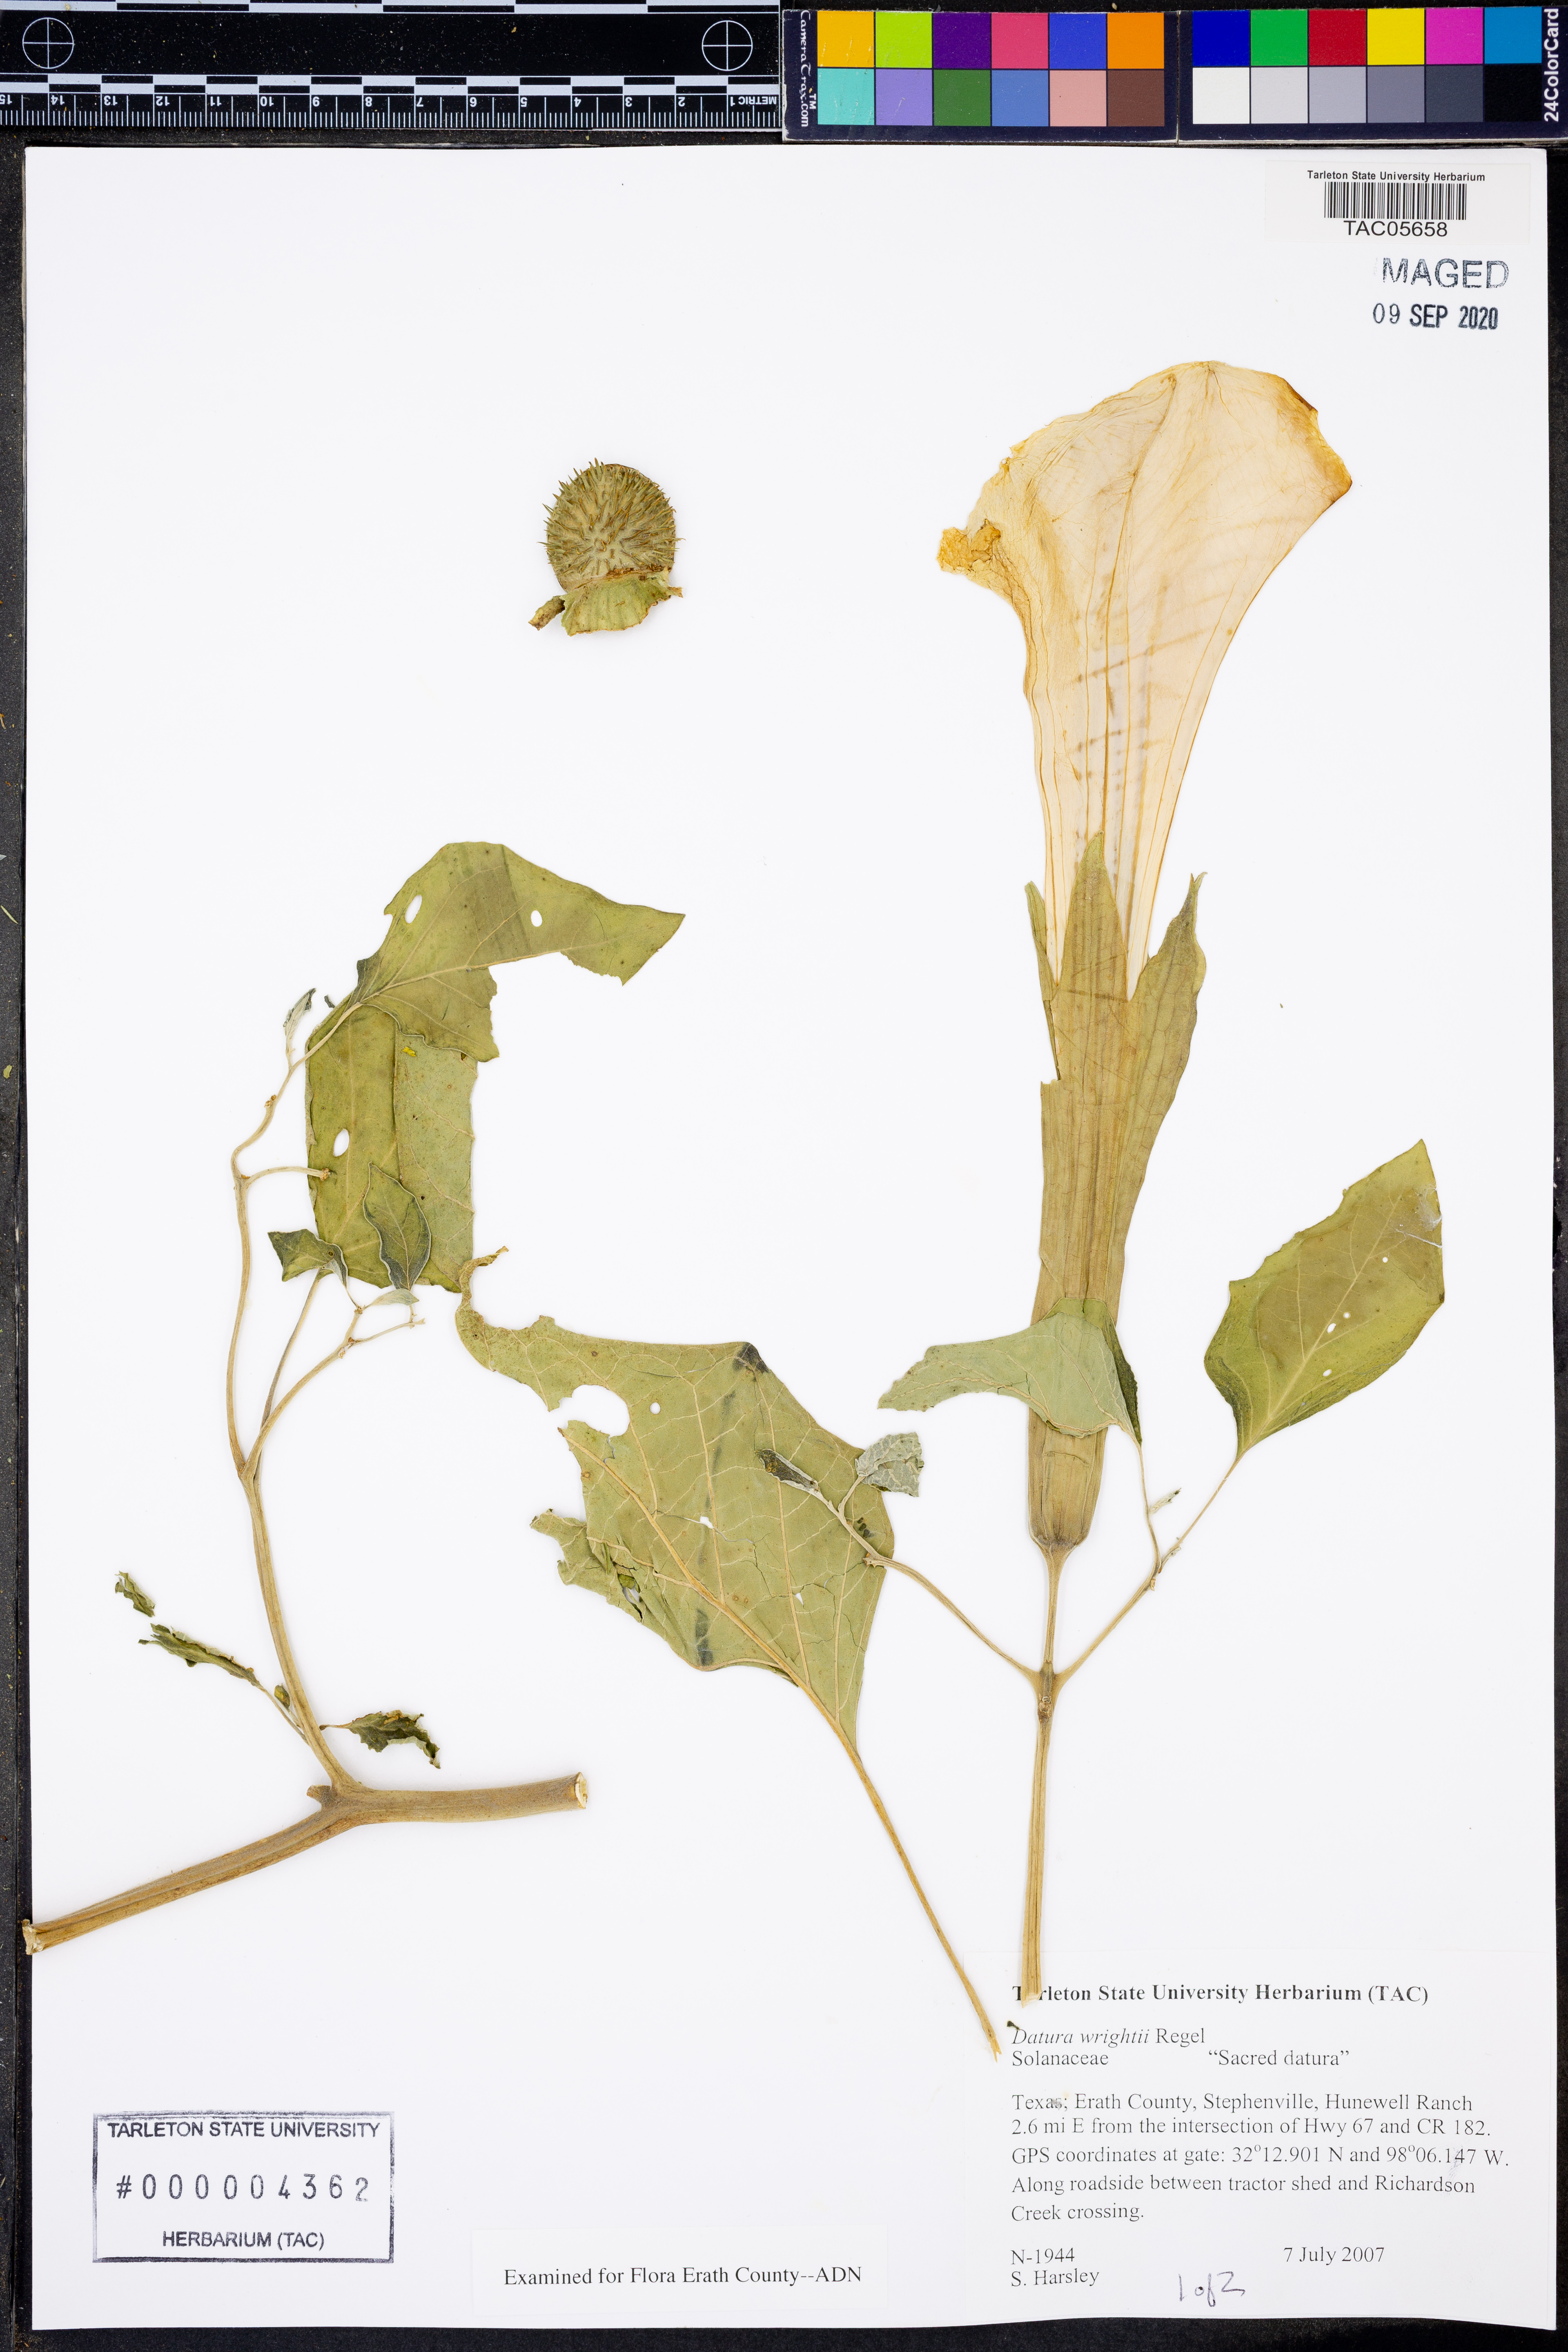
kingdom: Plantae
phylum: Tracheophyta
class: Magnoliopsida
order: Solanales
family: Solanaceae
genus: Datura
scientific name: Datura wrightii
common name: Sacred thorn-apple
